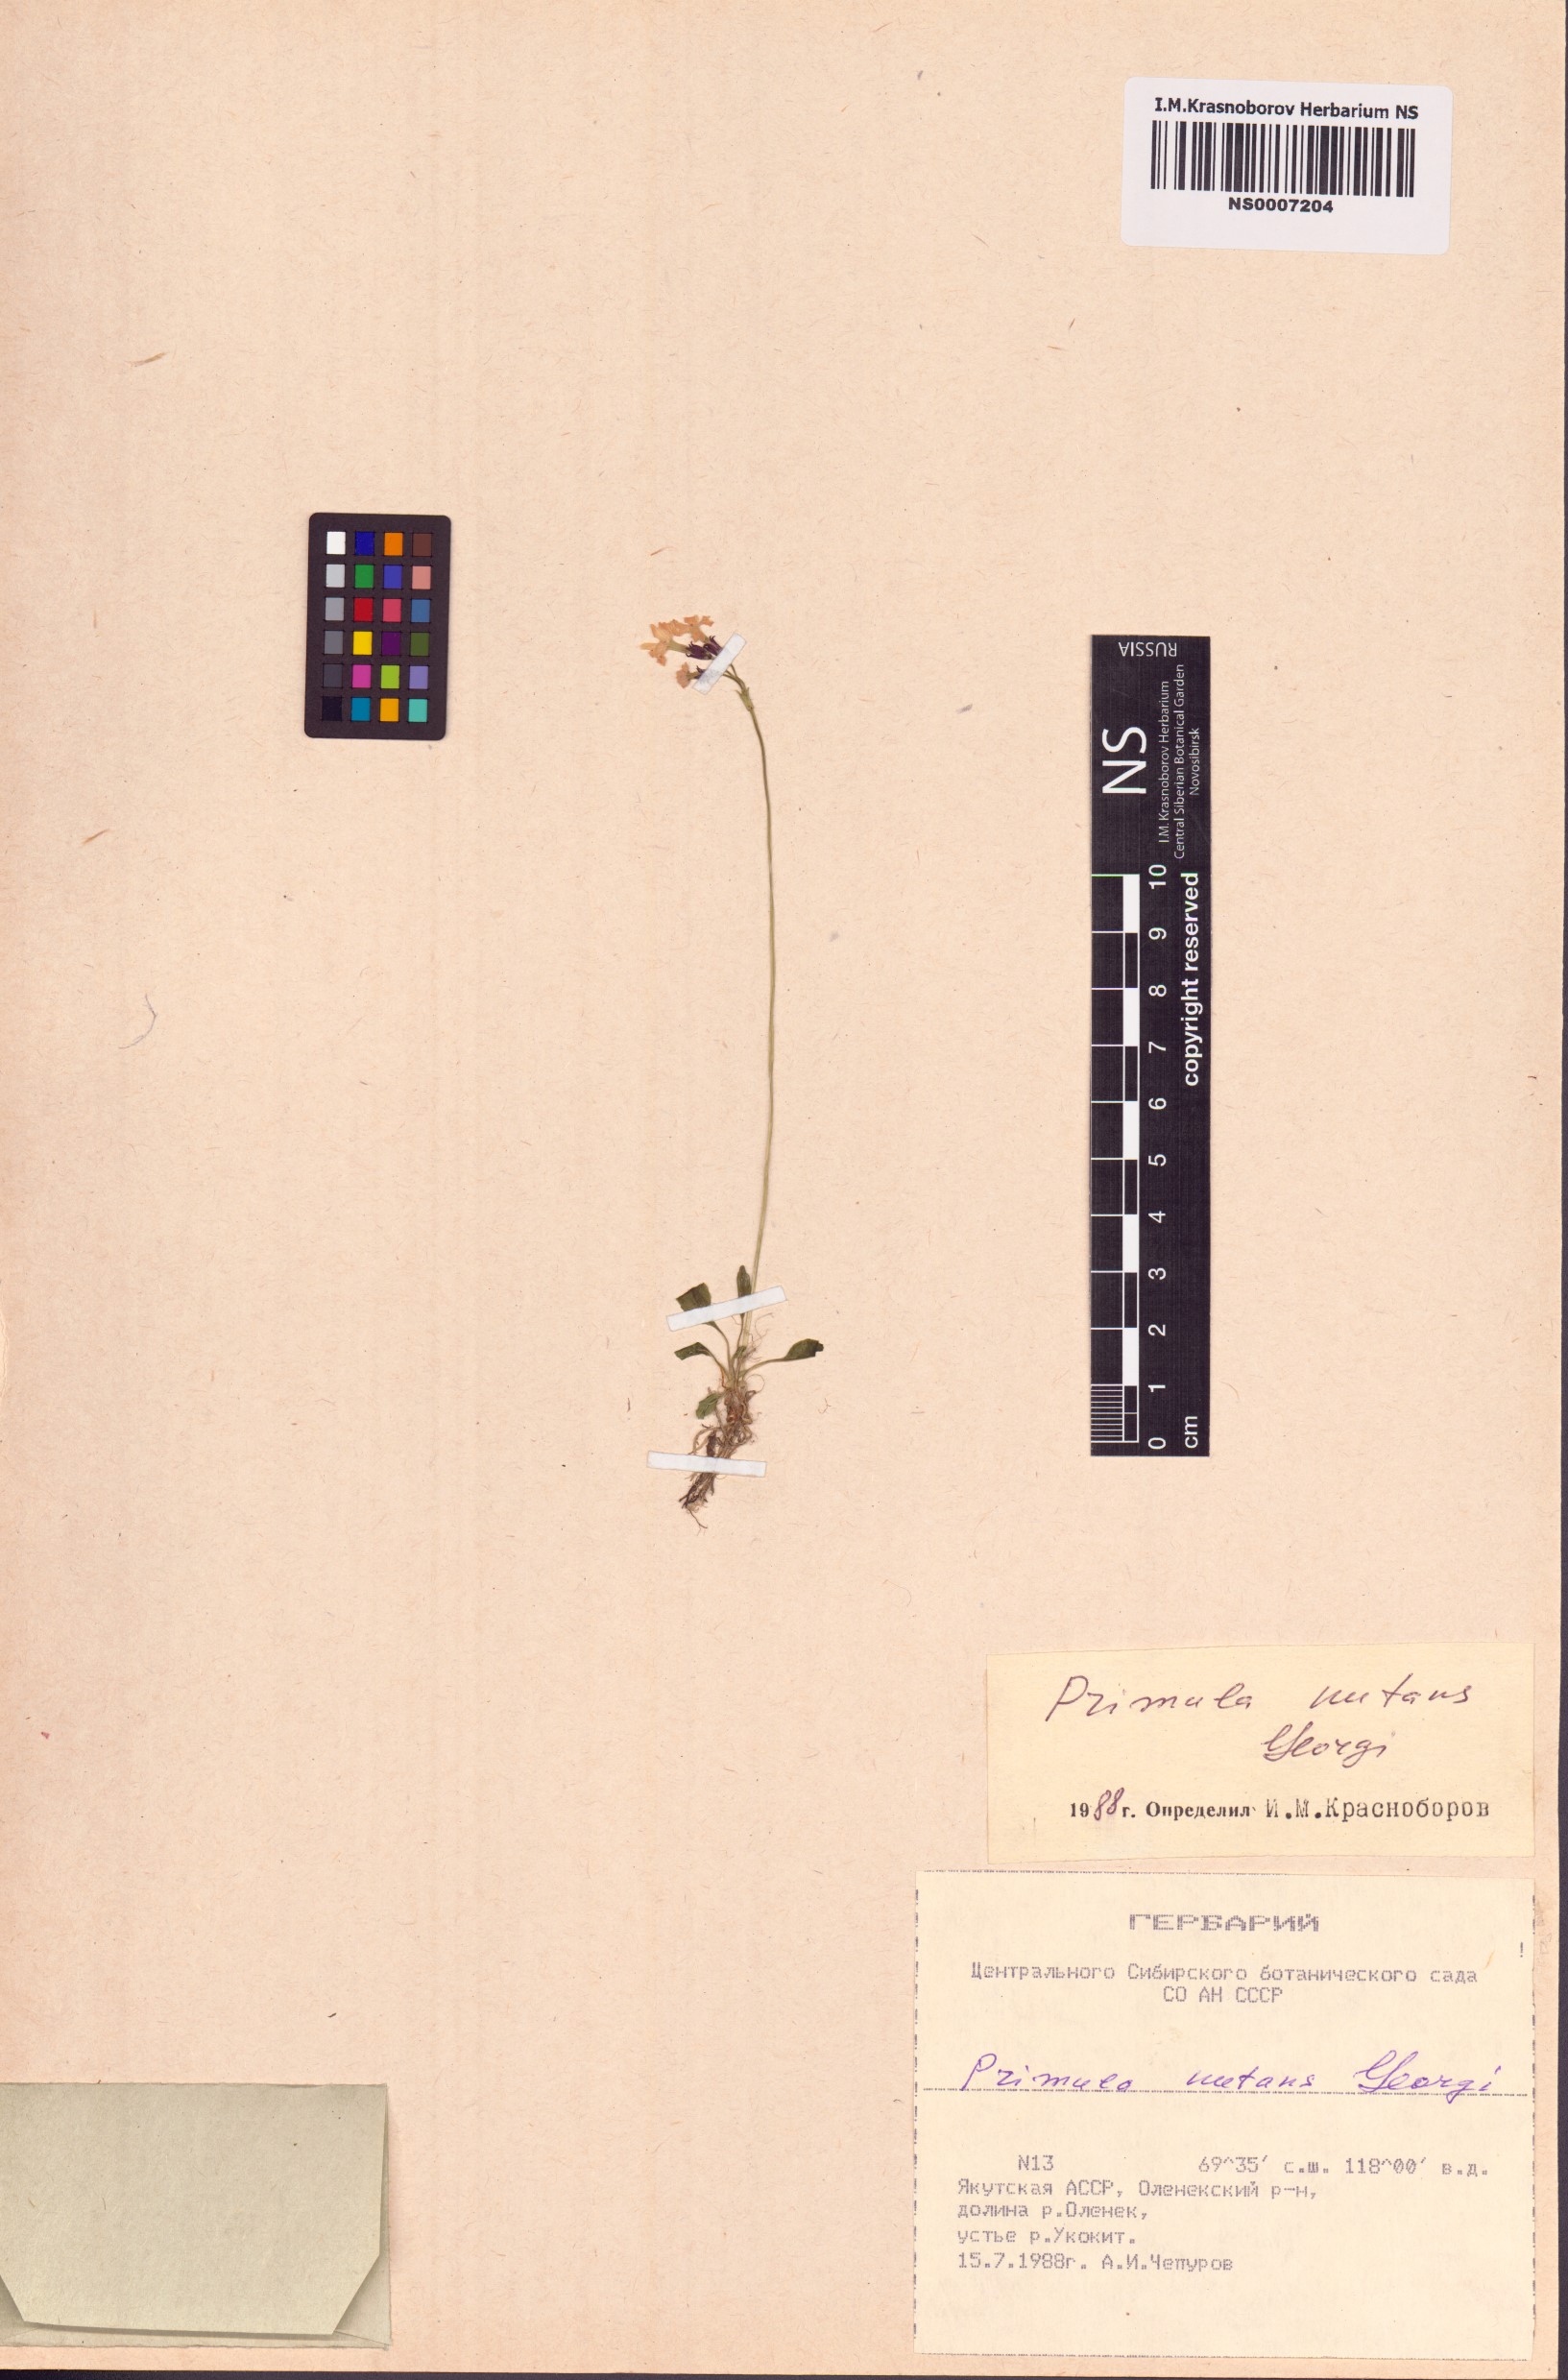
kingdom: Plantae
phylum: Tracheophyta
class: Magnoliopsida
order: Ericales
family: Primulaceae
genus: Primula
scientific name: Primula nutans
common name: Siberian primrose
